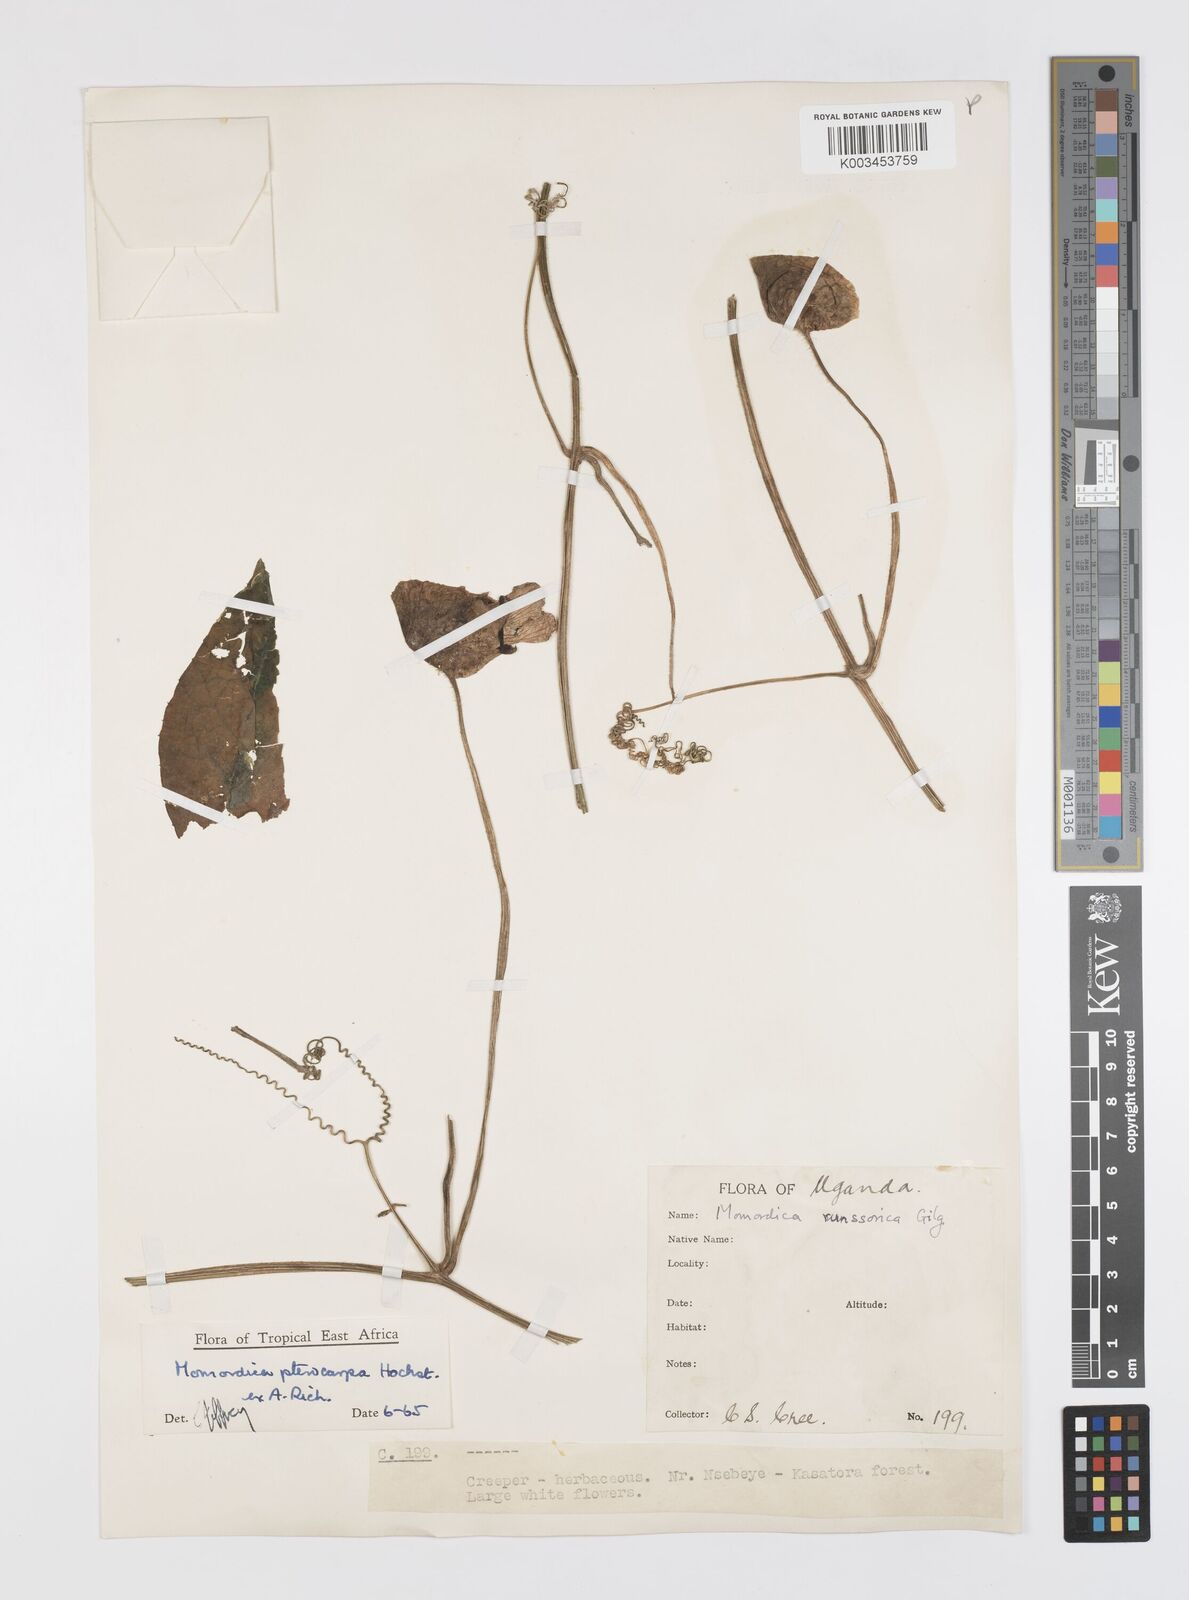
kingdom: Plantae
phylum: Tracheophyta
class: Magnoliopsida
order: Cucurbitales
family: Cucurbitaceae
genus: Momordica
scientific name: Momordica pterocarpa
